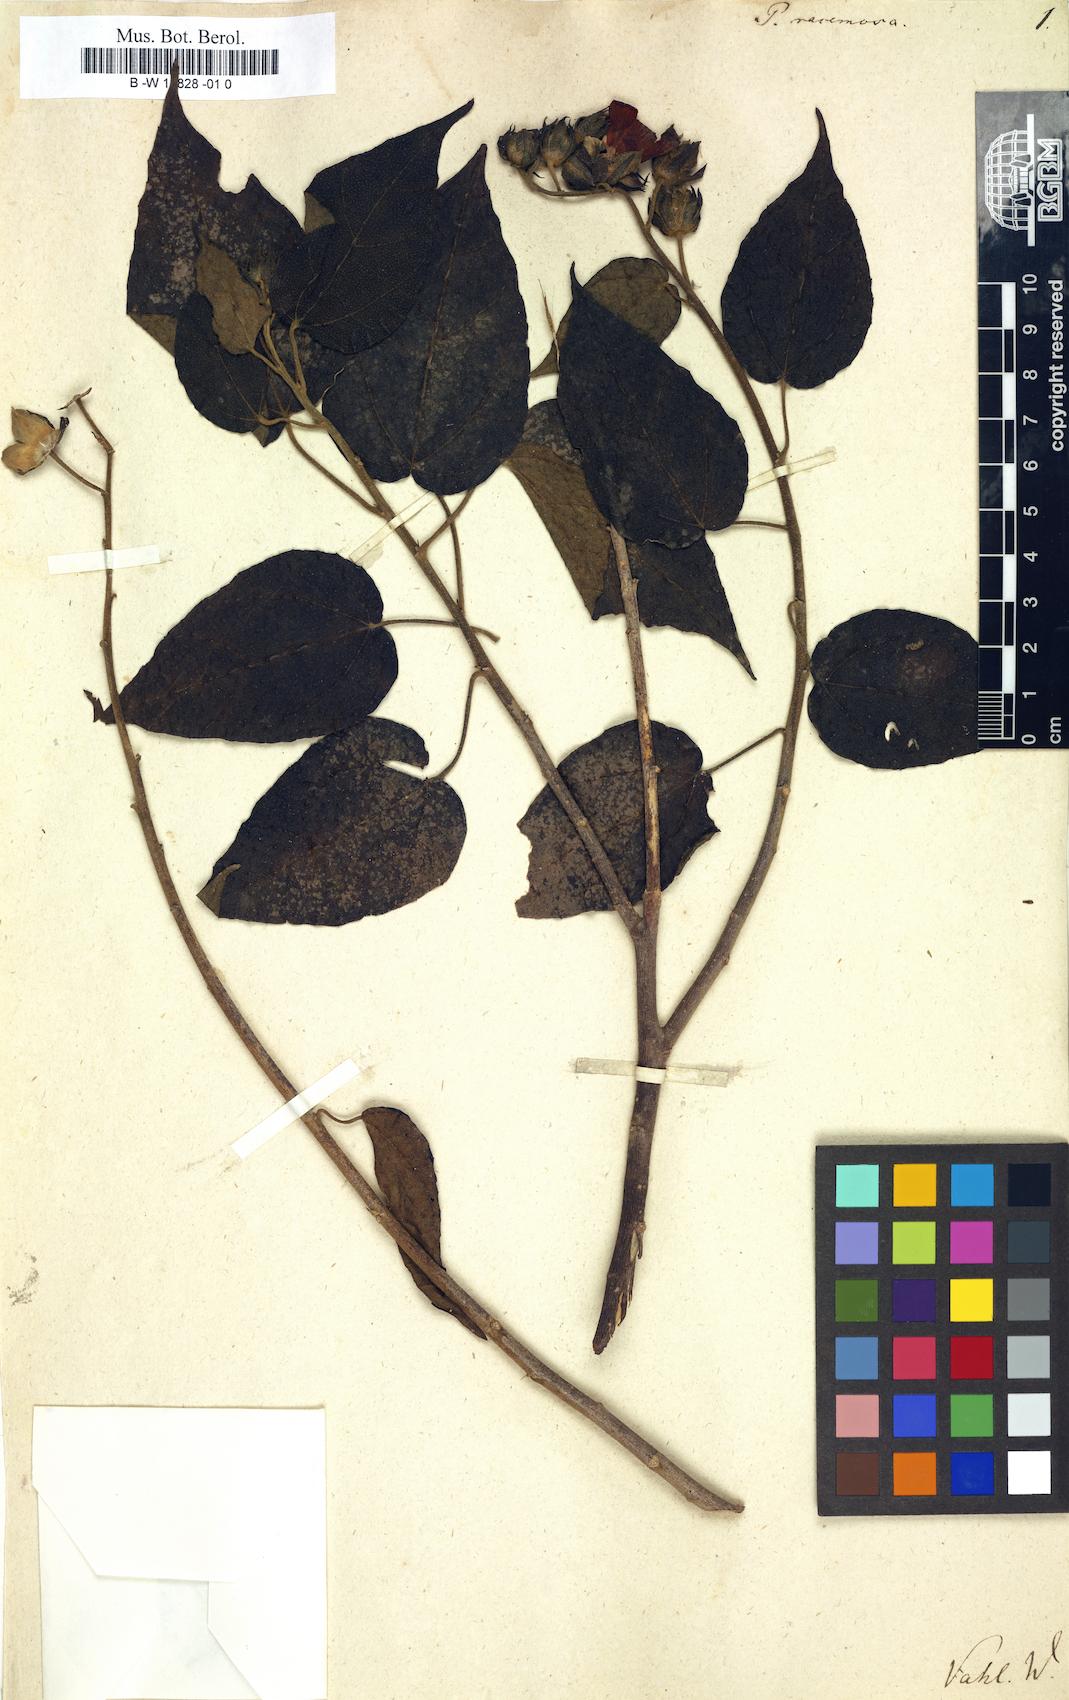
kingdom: Plantae
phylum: Tracheophyta
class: Magnoliopsida
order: Malvales
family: Malvaceae
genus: Pavonia
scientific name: Pavonia paludicola
